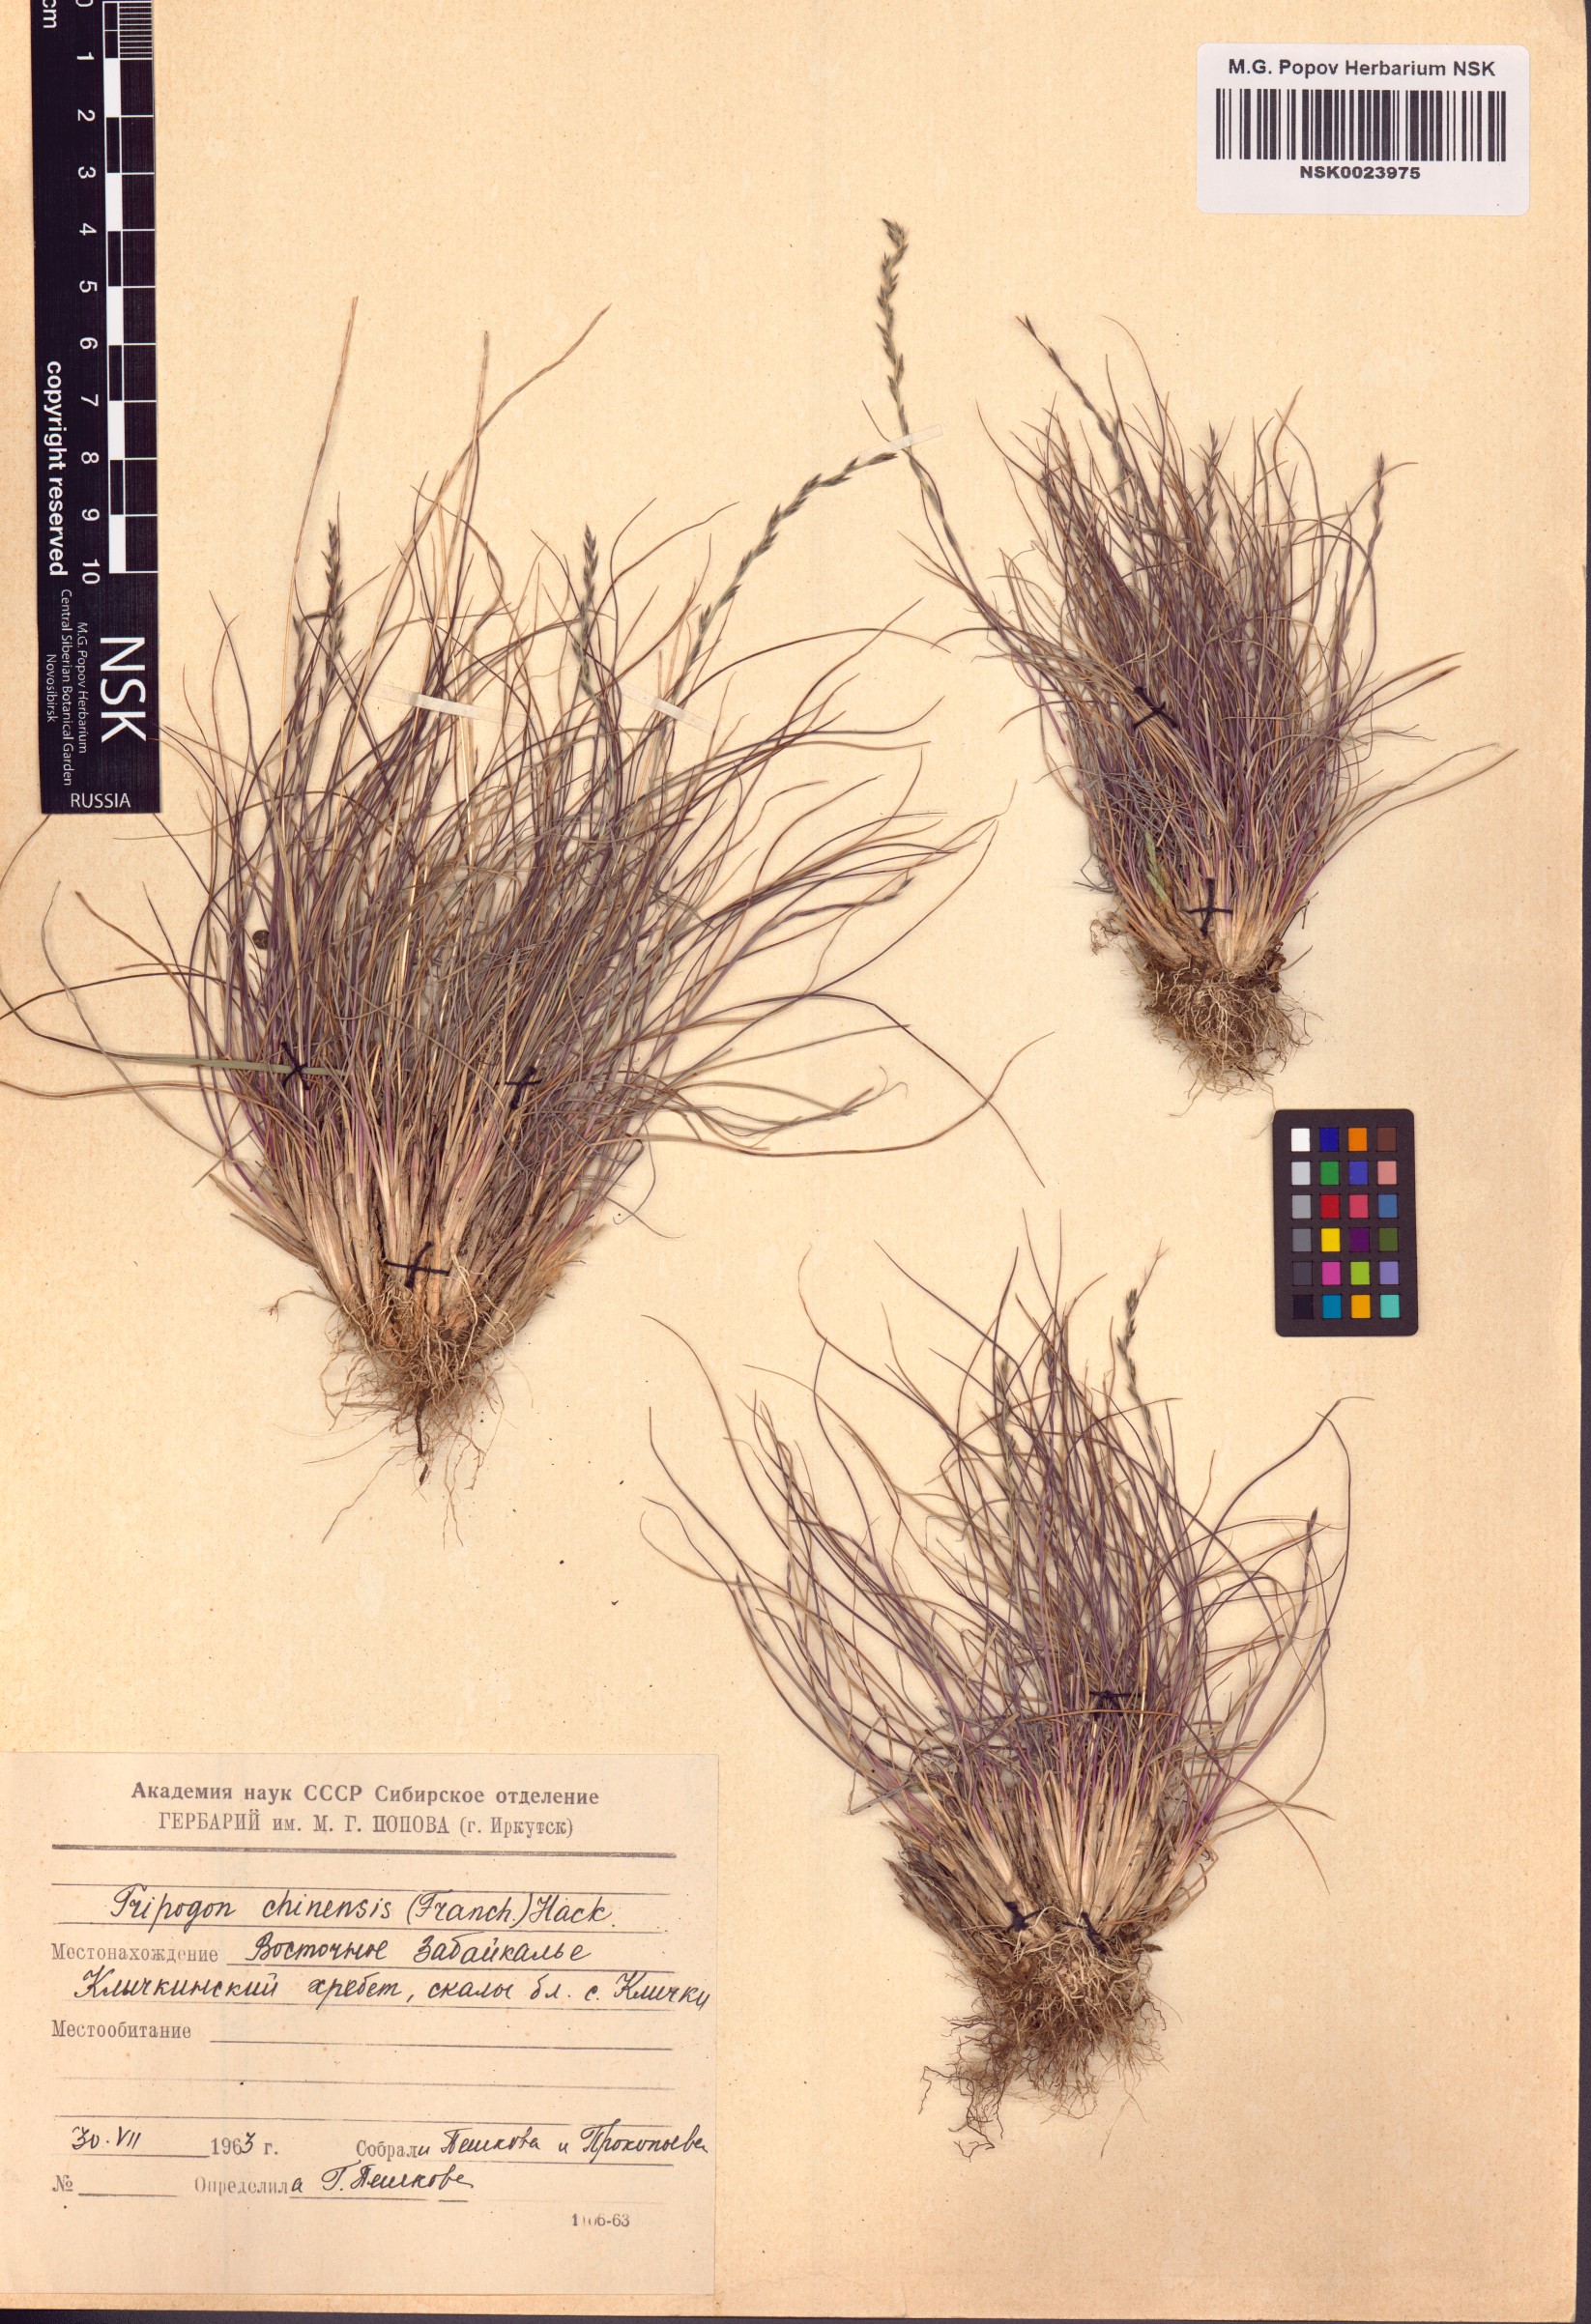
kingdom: Plantae
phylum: Tracheophyta
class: Liliopsida
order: Poales
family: Poaceae
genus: Tripogon
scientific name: Tripogon chinensis
